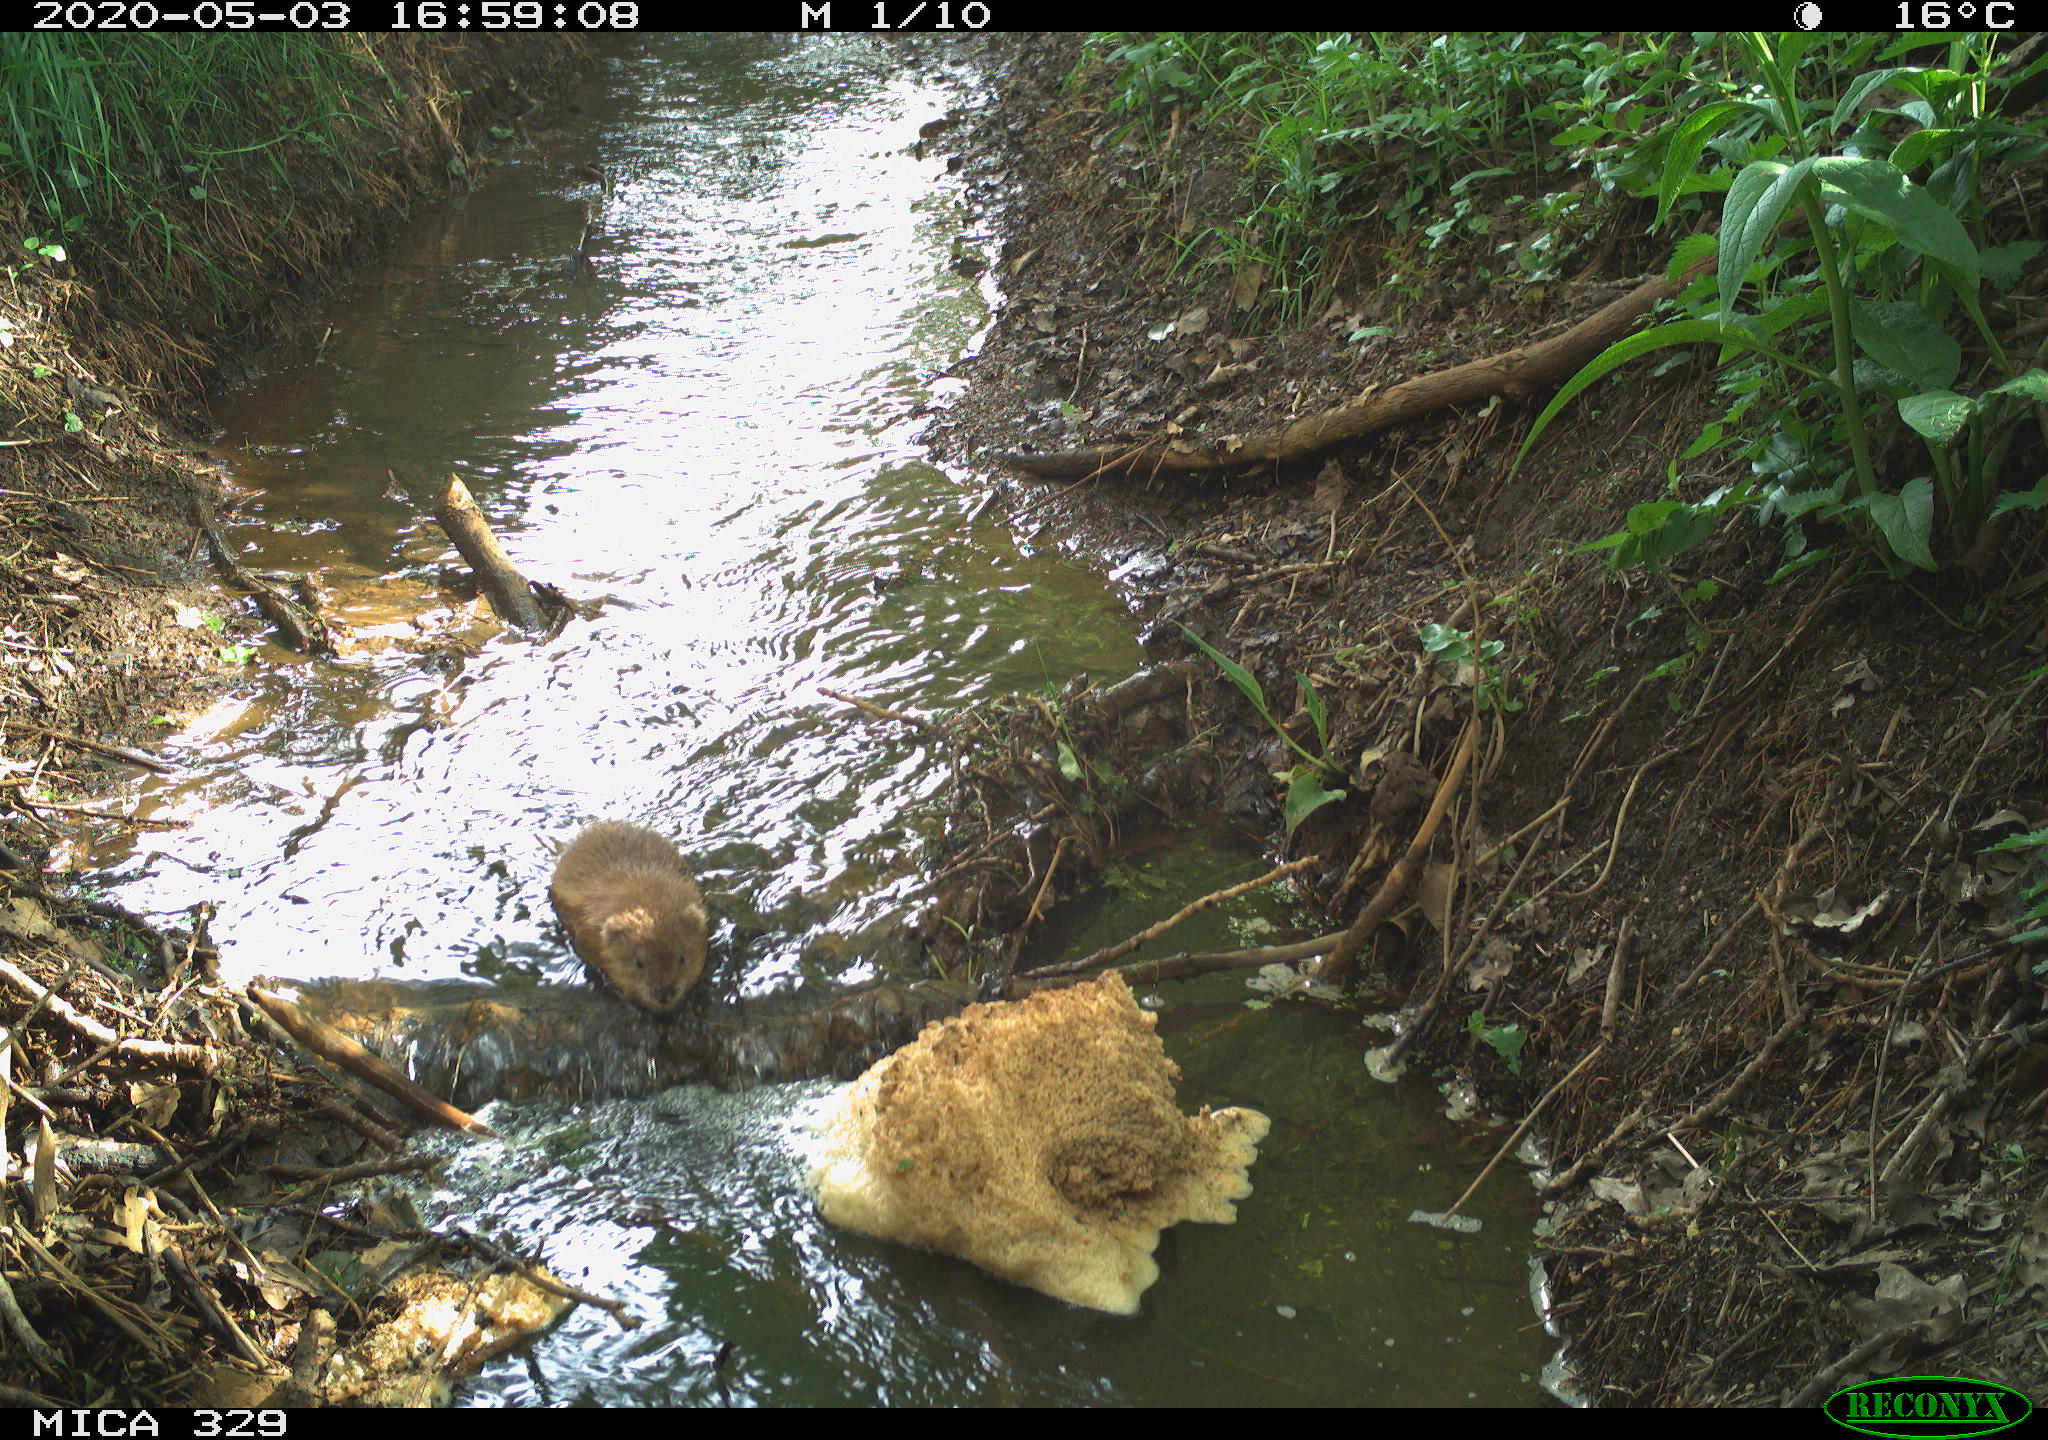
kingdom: Animalia
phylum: Chordata
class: Mammalia
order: Rodentia
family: Cricetidae
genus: Ondatra
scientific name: Ondatra zibethicus
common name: Muskrat
